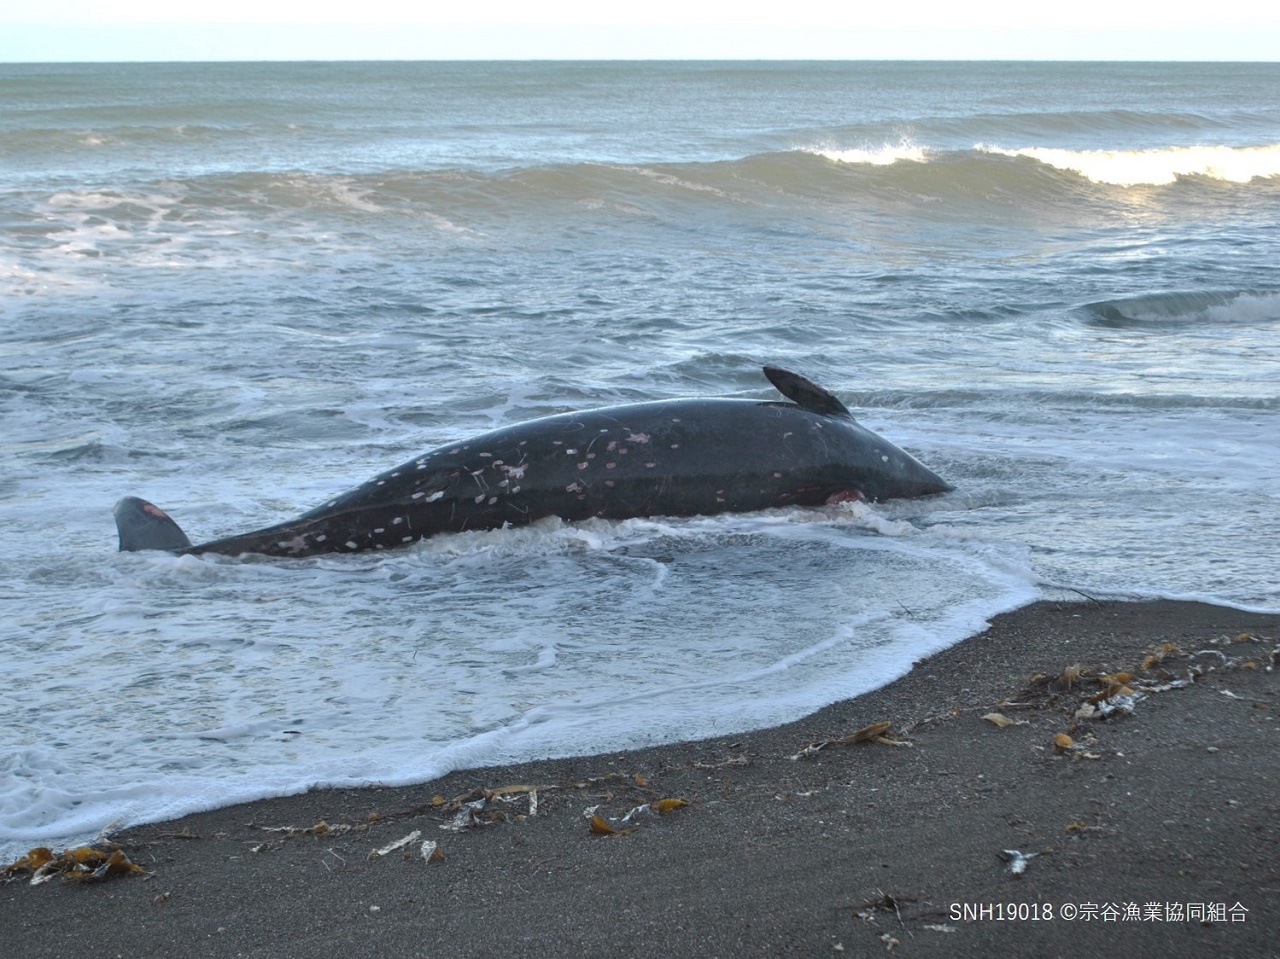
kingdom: Animalia
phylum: Chordata
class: Mammalia
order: Cetacea
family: Hyperoodontidae
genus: Berardius
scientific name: Berardius minimus
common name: Sato's beaked whale
